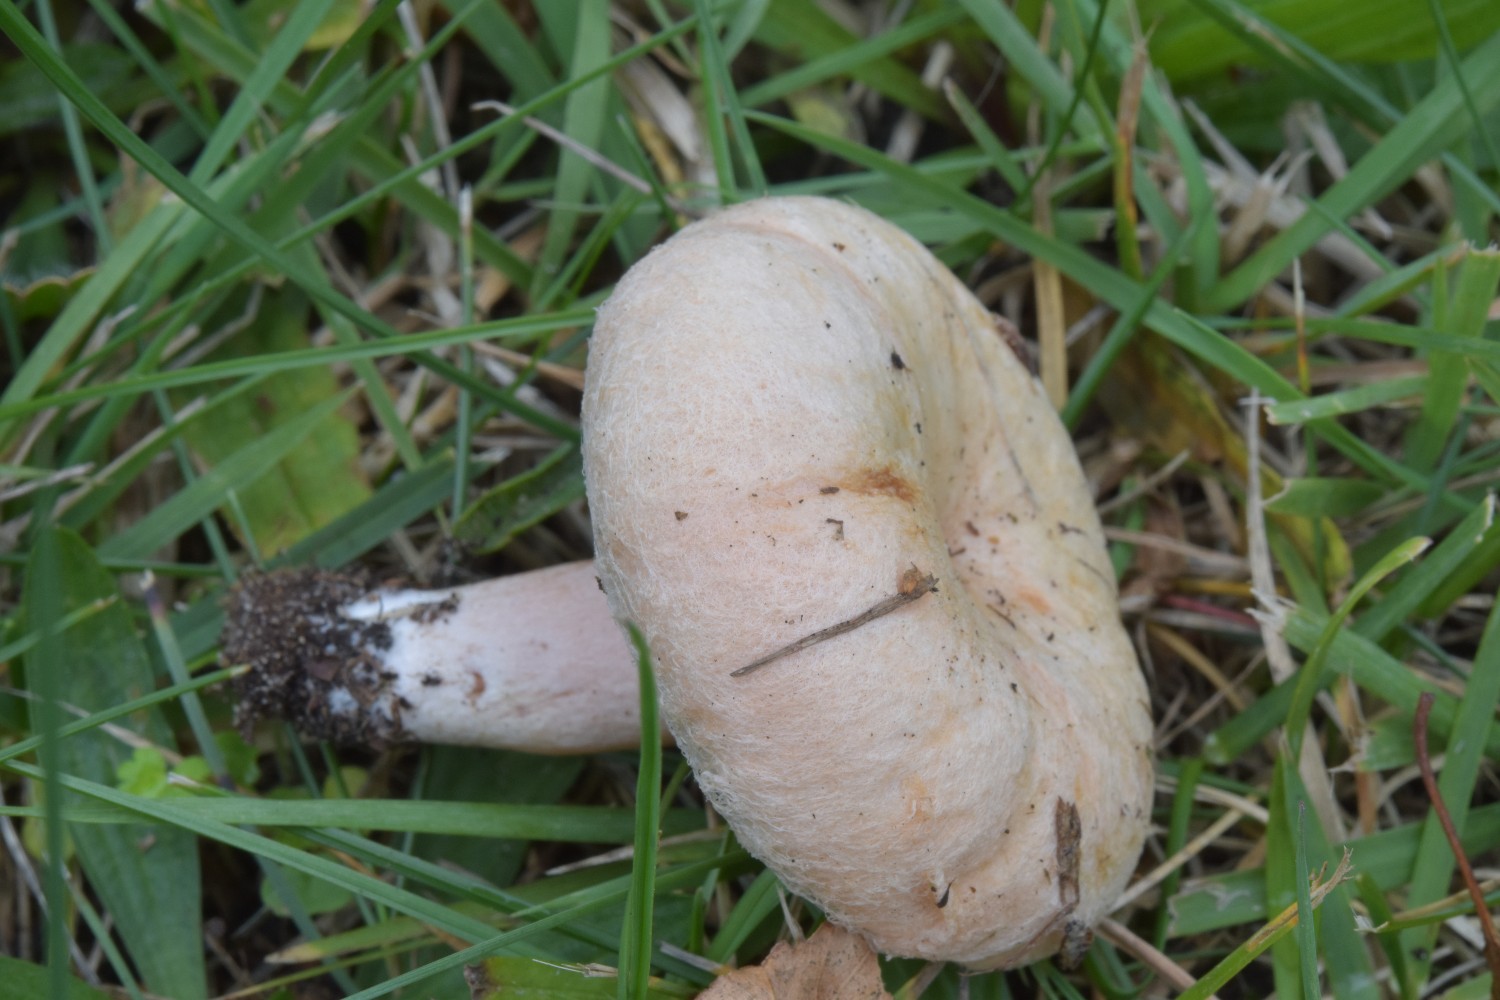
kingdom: Fungi
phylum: Basidiomycota
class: Agaricomycetes
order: Russulales
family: Russulaceae
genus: Lactarius
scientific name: Lactarius torminosus
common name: skægget mælkehat
